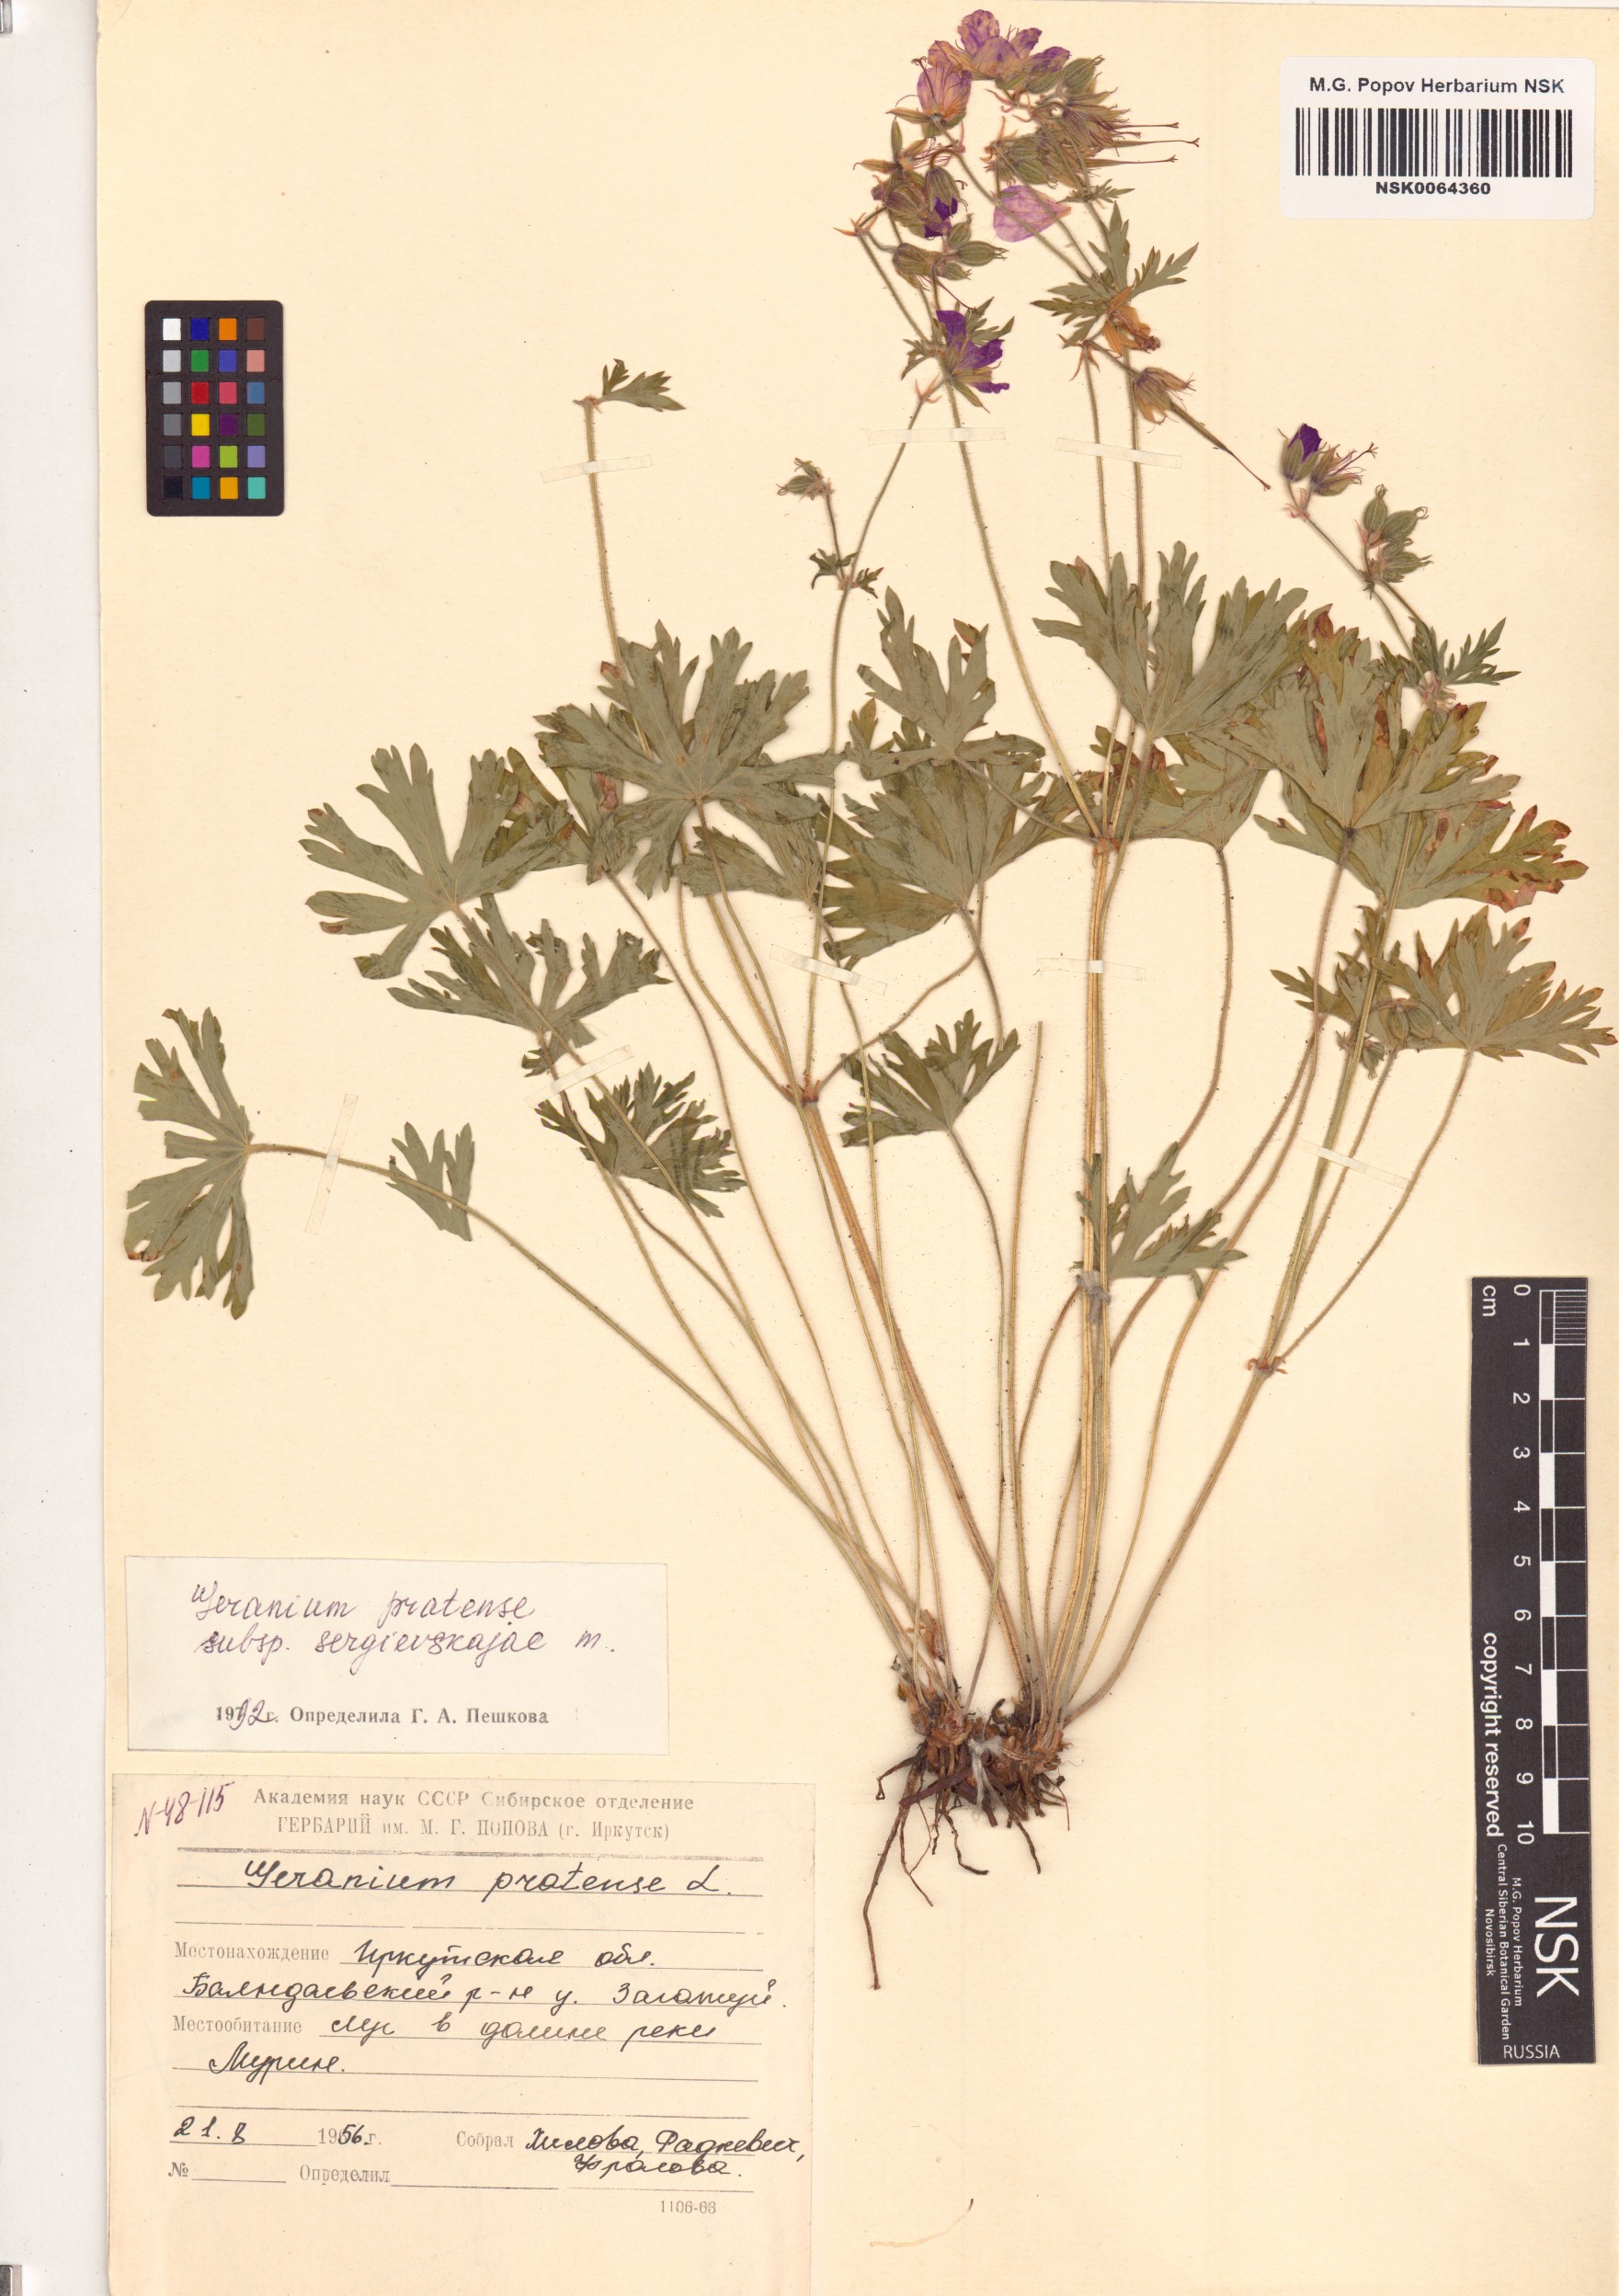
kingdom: Plantae
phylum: Tracheophyta
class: Magnoliopsida
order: Geraniales
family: Geraniaceae
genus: Geranium
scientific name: Geranium pratense
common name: Meadow crane's-bill
